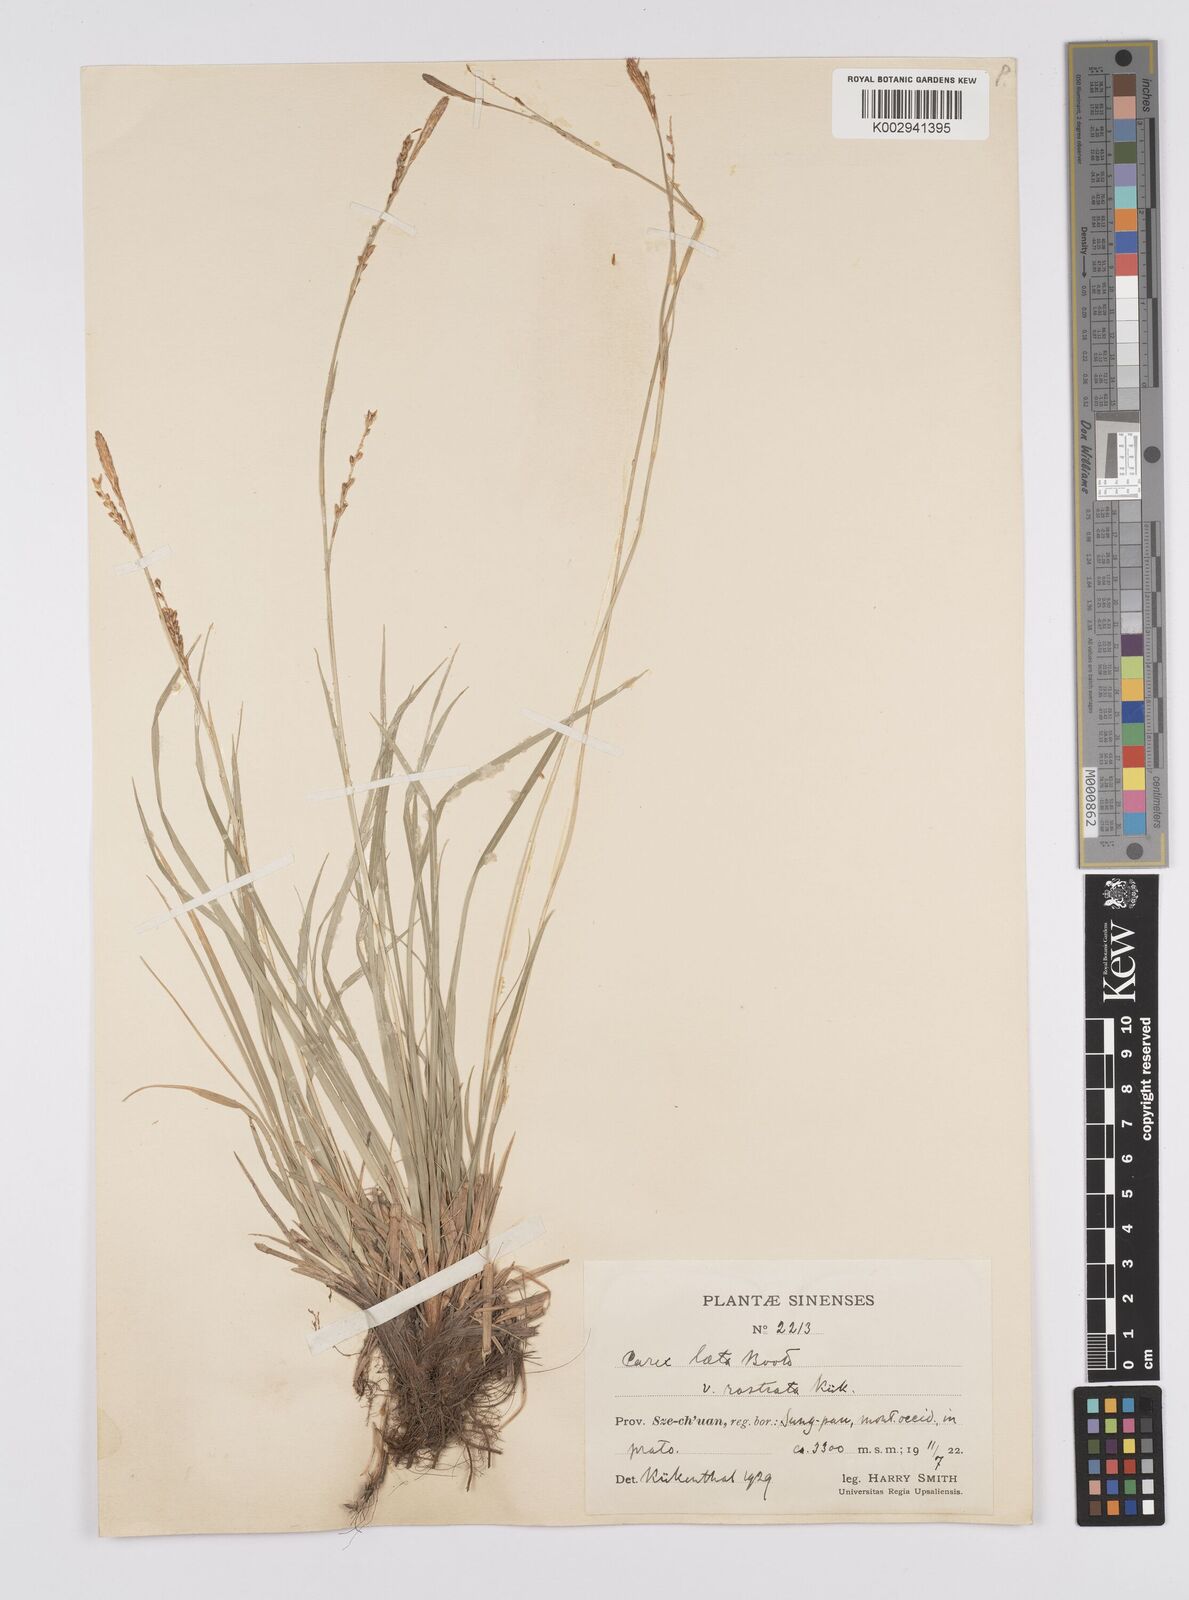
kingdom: Plantae
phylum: Tracheophyta
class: Liliopsida
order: Poales
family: Cyperaceae
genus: Carex
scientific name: Carex laeta
